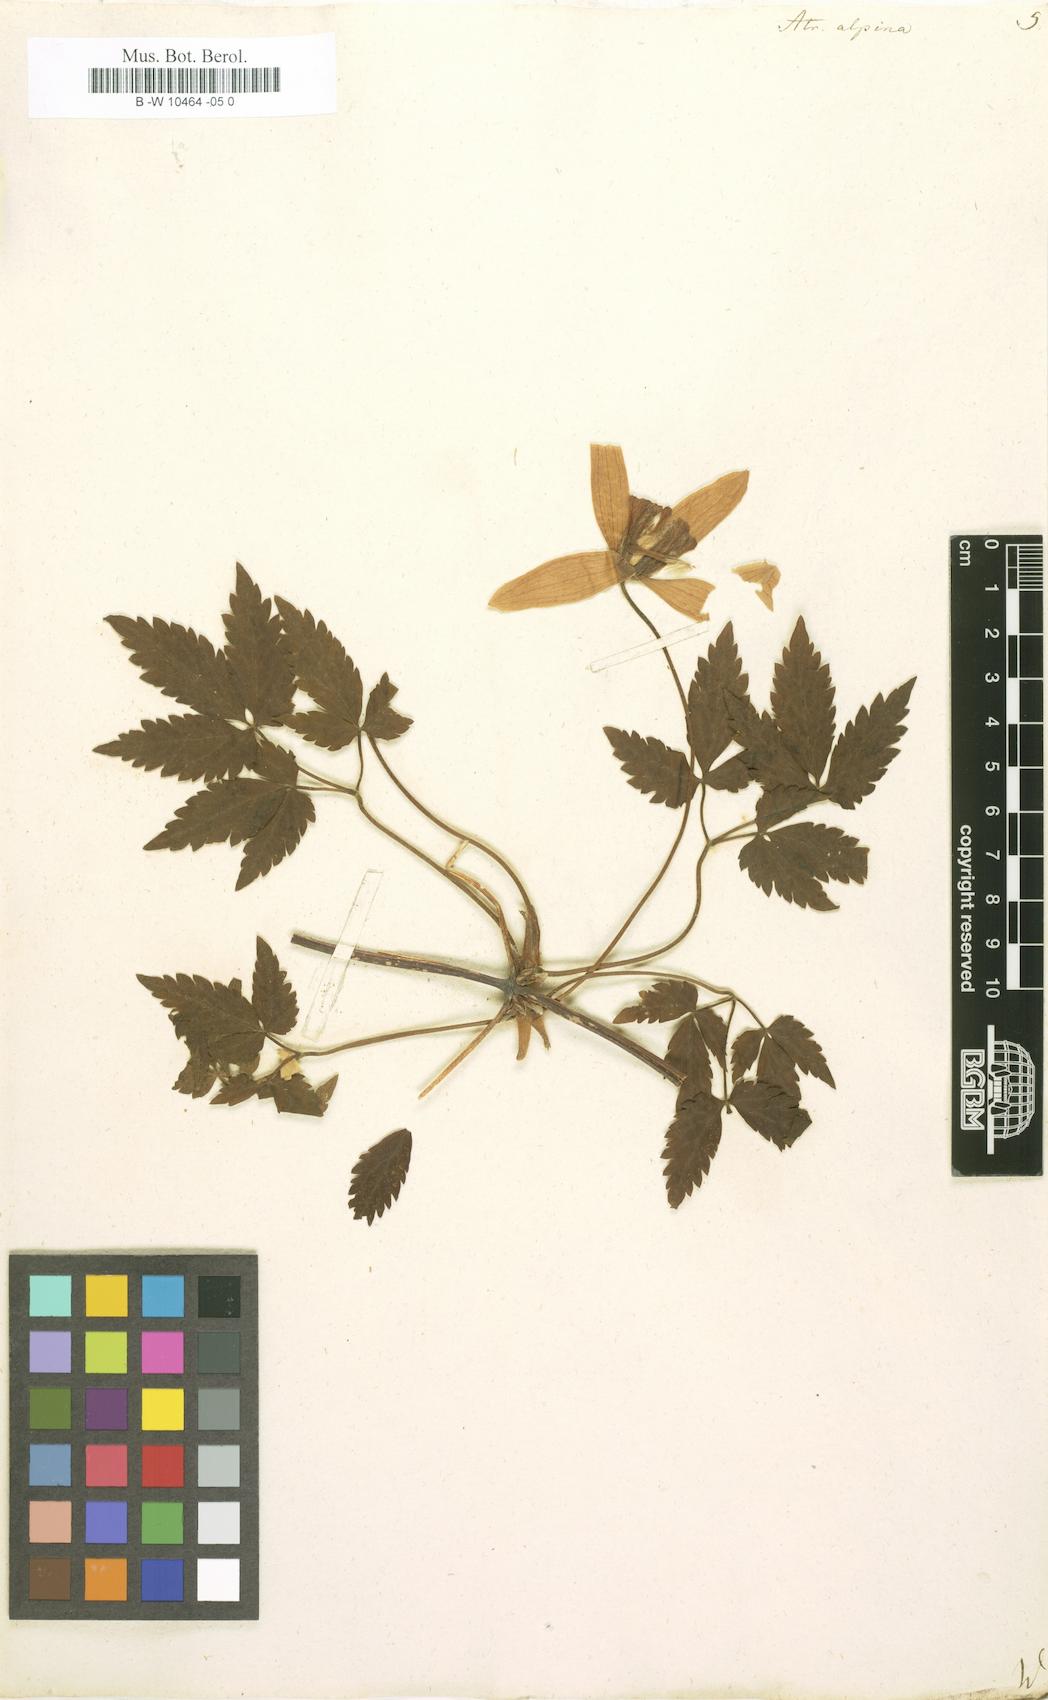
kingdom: Plantae
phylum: Tracheophyta
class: Magnoliopsida
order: Ranunculales
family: Ranunculaceae
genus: Clematis
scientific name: Clematis alpina
